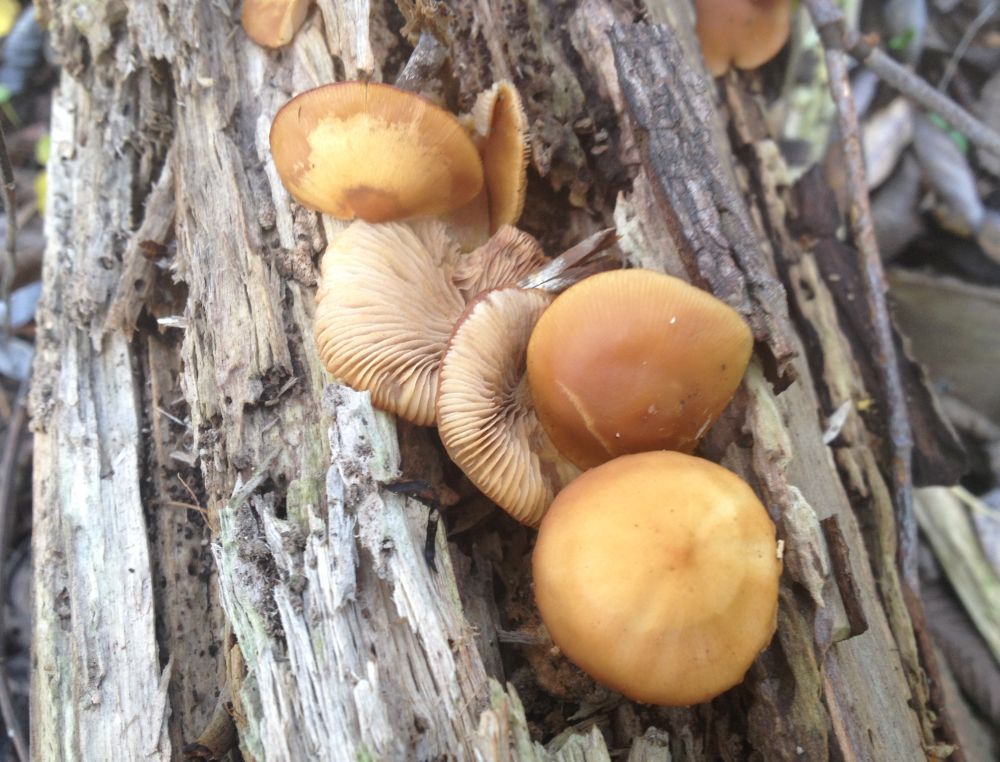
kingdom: Fungi
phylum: Basidiomycota
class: Agaricomycetes
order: Agaricales
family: Strophariaceae
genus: Kuehneromyces
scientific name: Kuehneromyces mutabilis
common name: foranderlig skælhat
